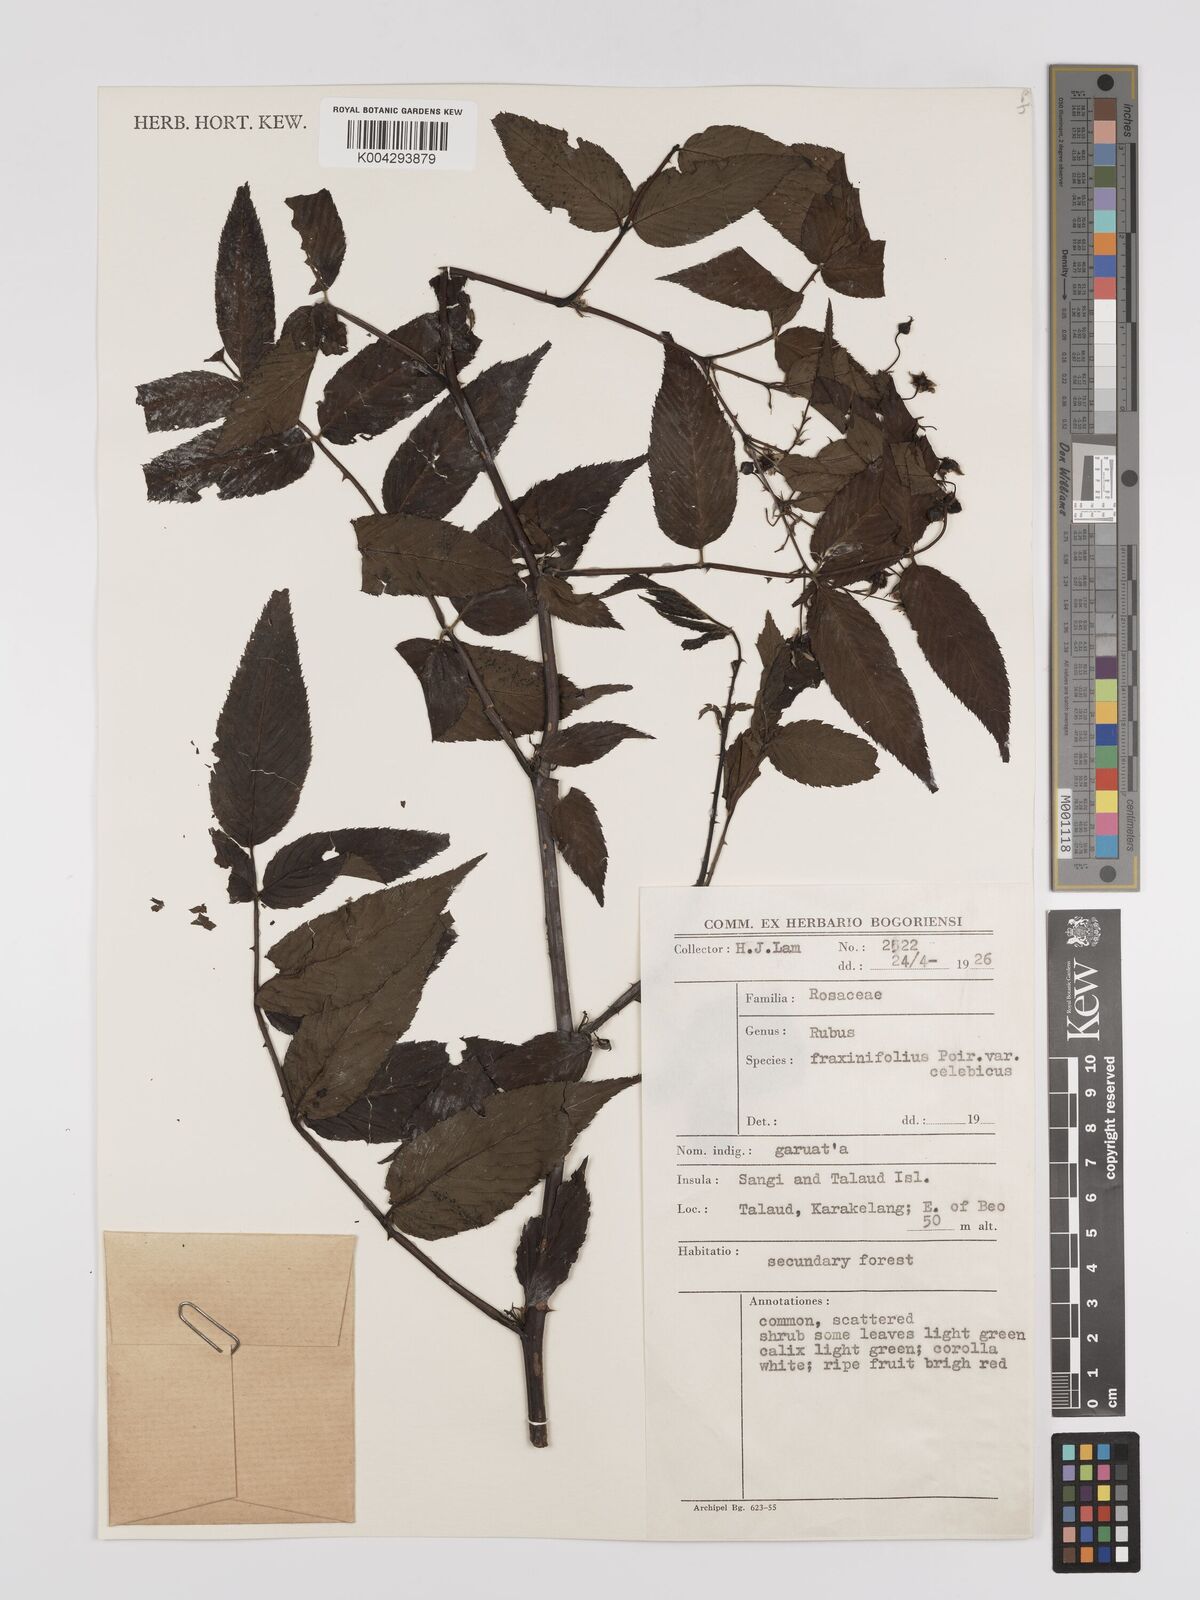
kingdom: Plantae
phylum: Tracheophyta
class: Magnoliopsida
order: Rosales
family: Rosaceae
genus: Rubus
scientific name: Rubus fraxinifolius
